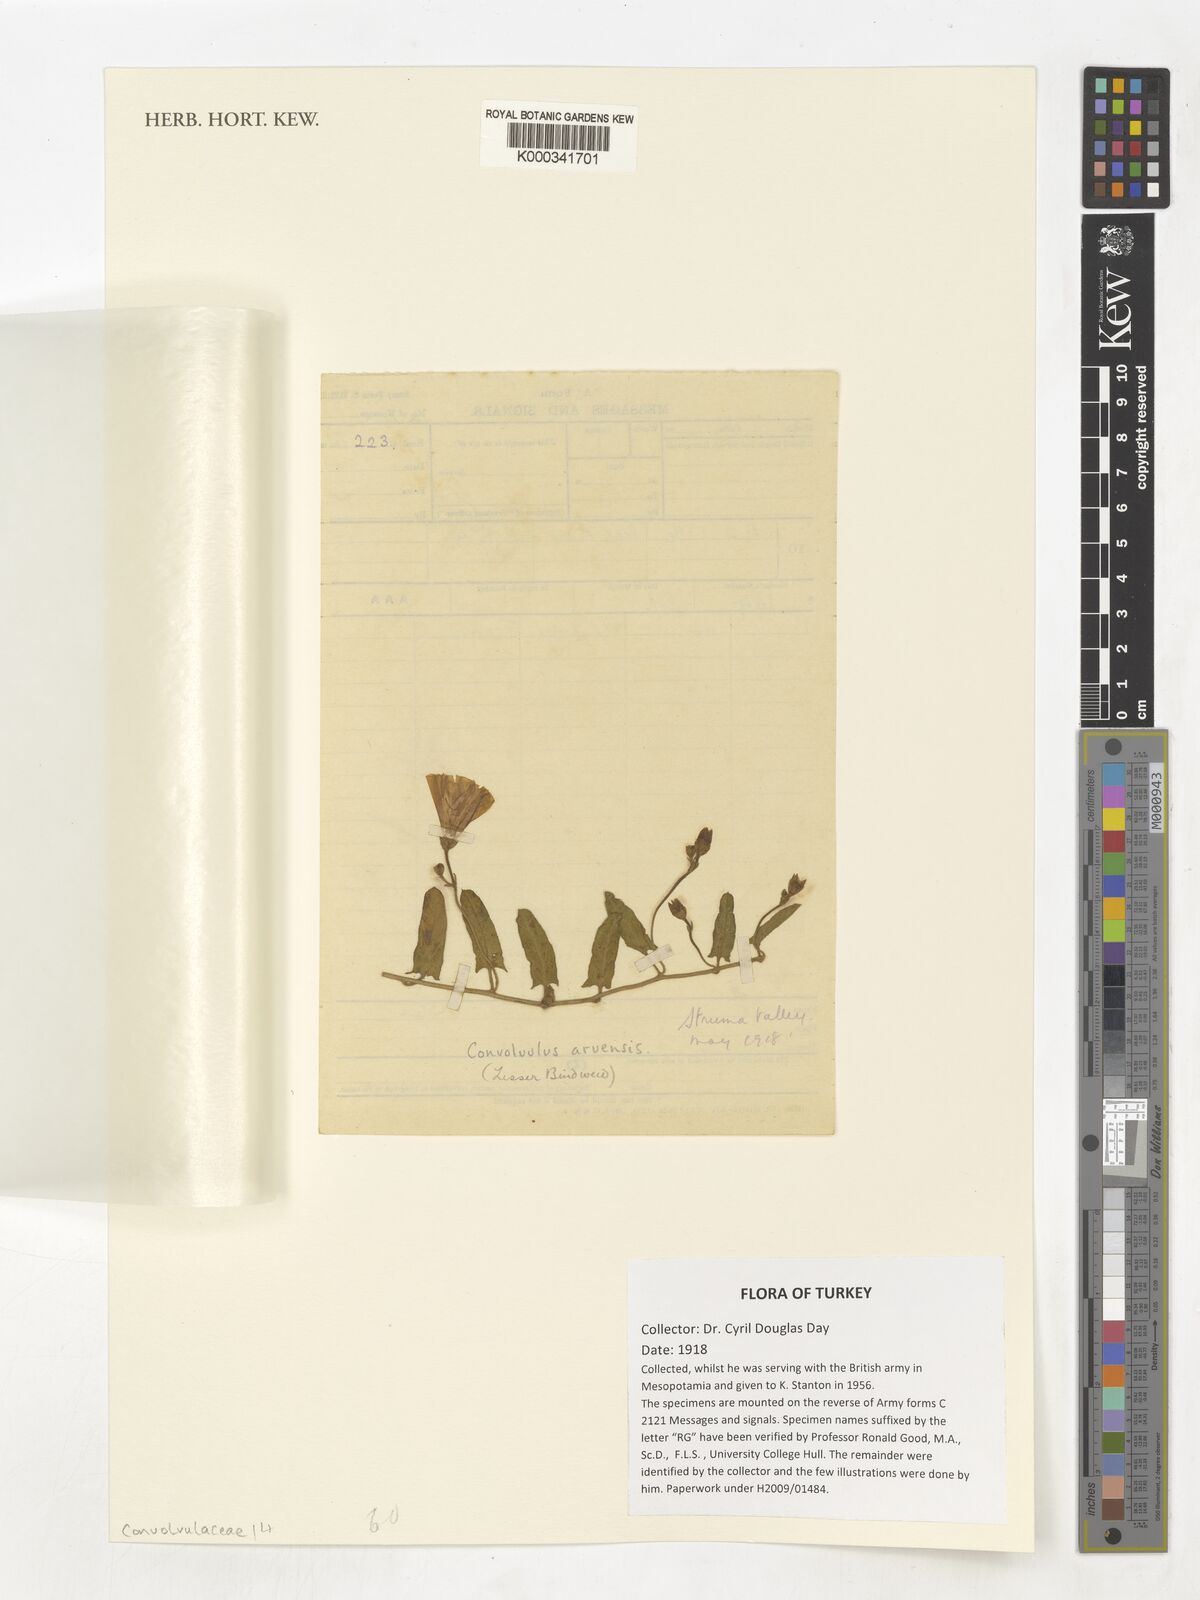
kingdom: Plantae
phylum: Tracheophyta
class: Magnoliopsida
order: Solanales
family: Convolvulaceae
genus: Convolvulus
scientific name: Convolvulus arvensis
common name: Field bindweed
